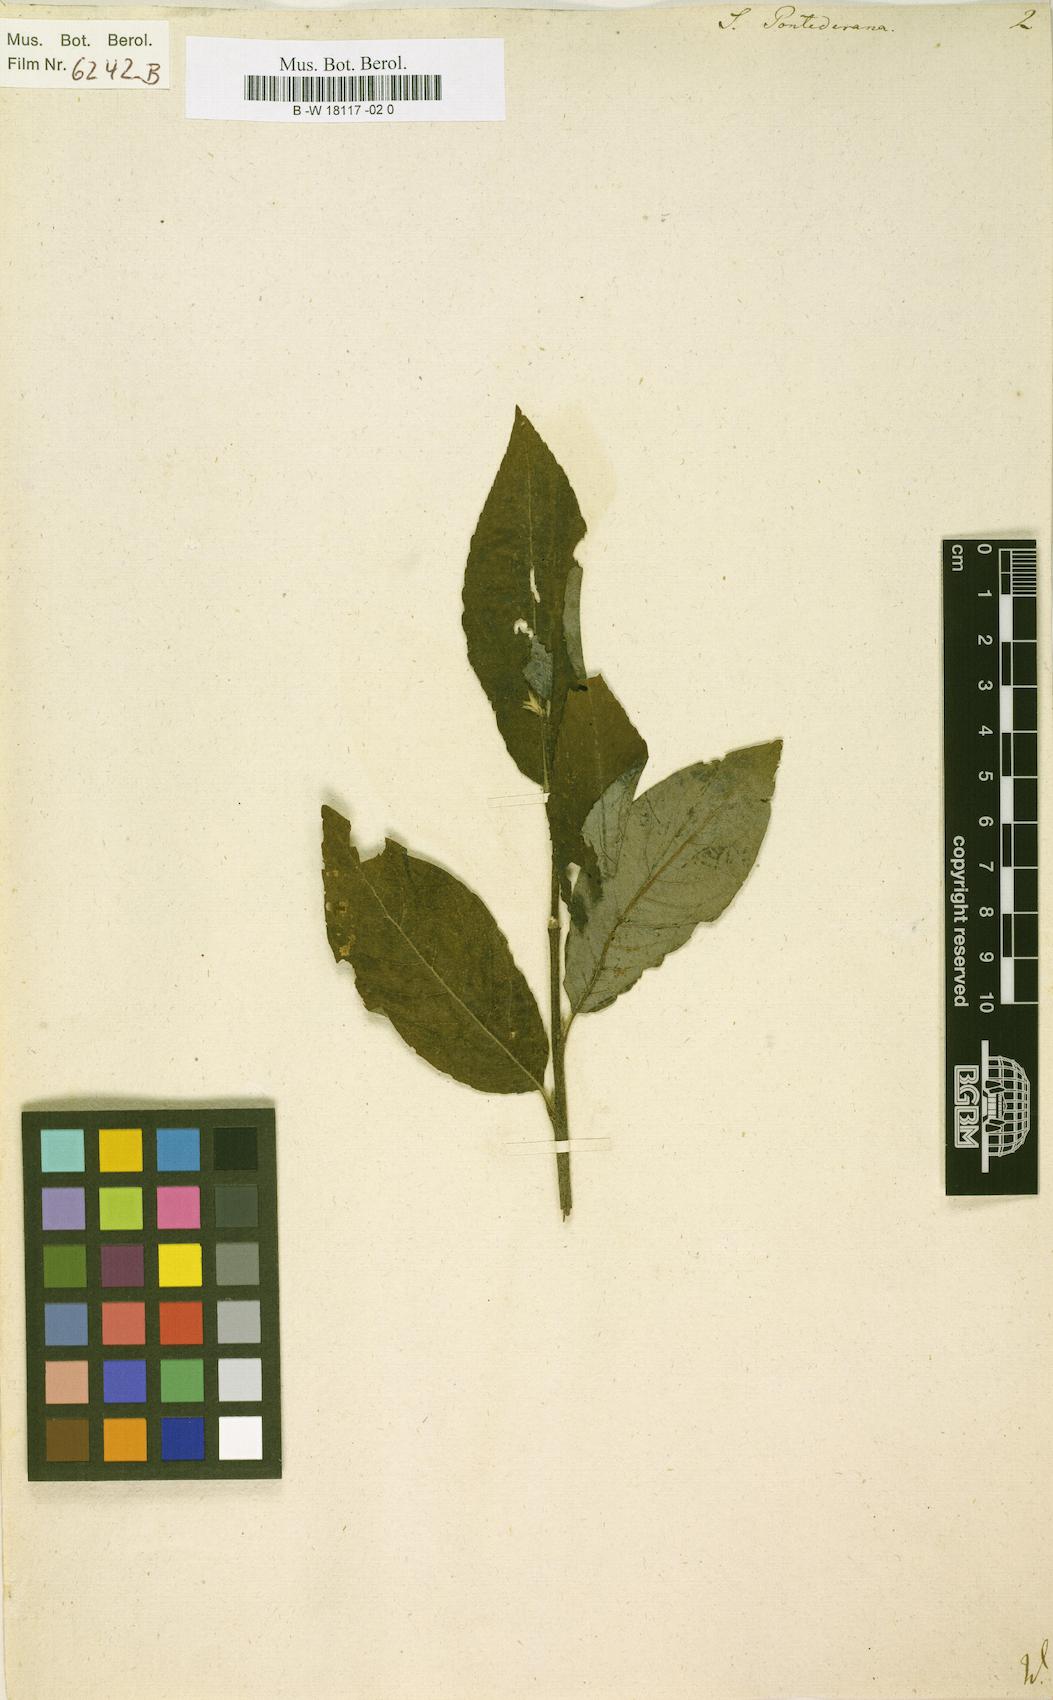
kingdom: Plantae
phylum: Tracheophyta
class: Magnoliopsida
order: Malpighiales
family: Salicaceae
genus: Salix
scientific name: Salix pontederana
